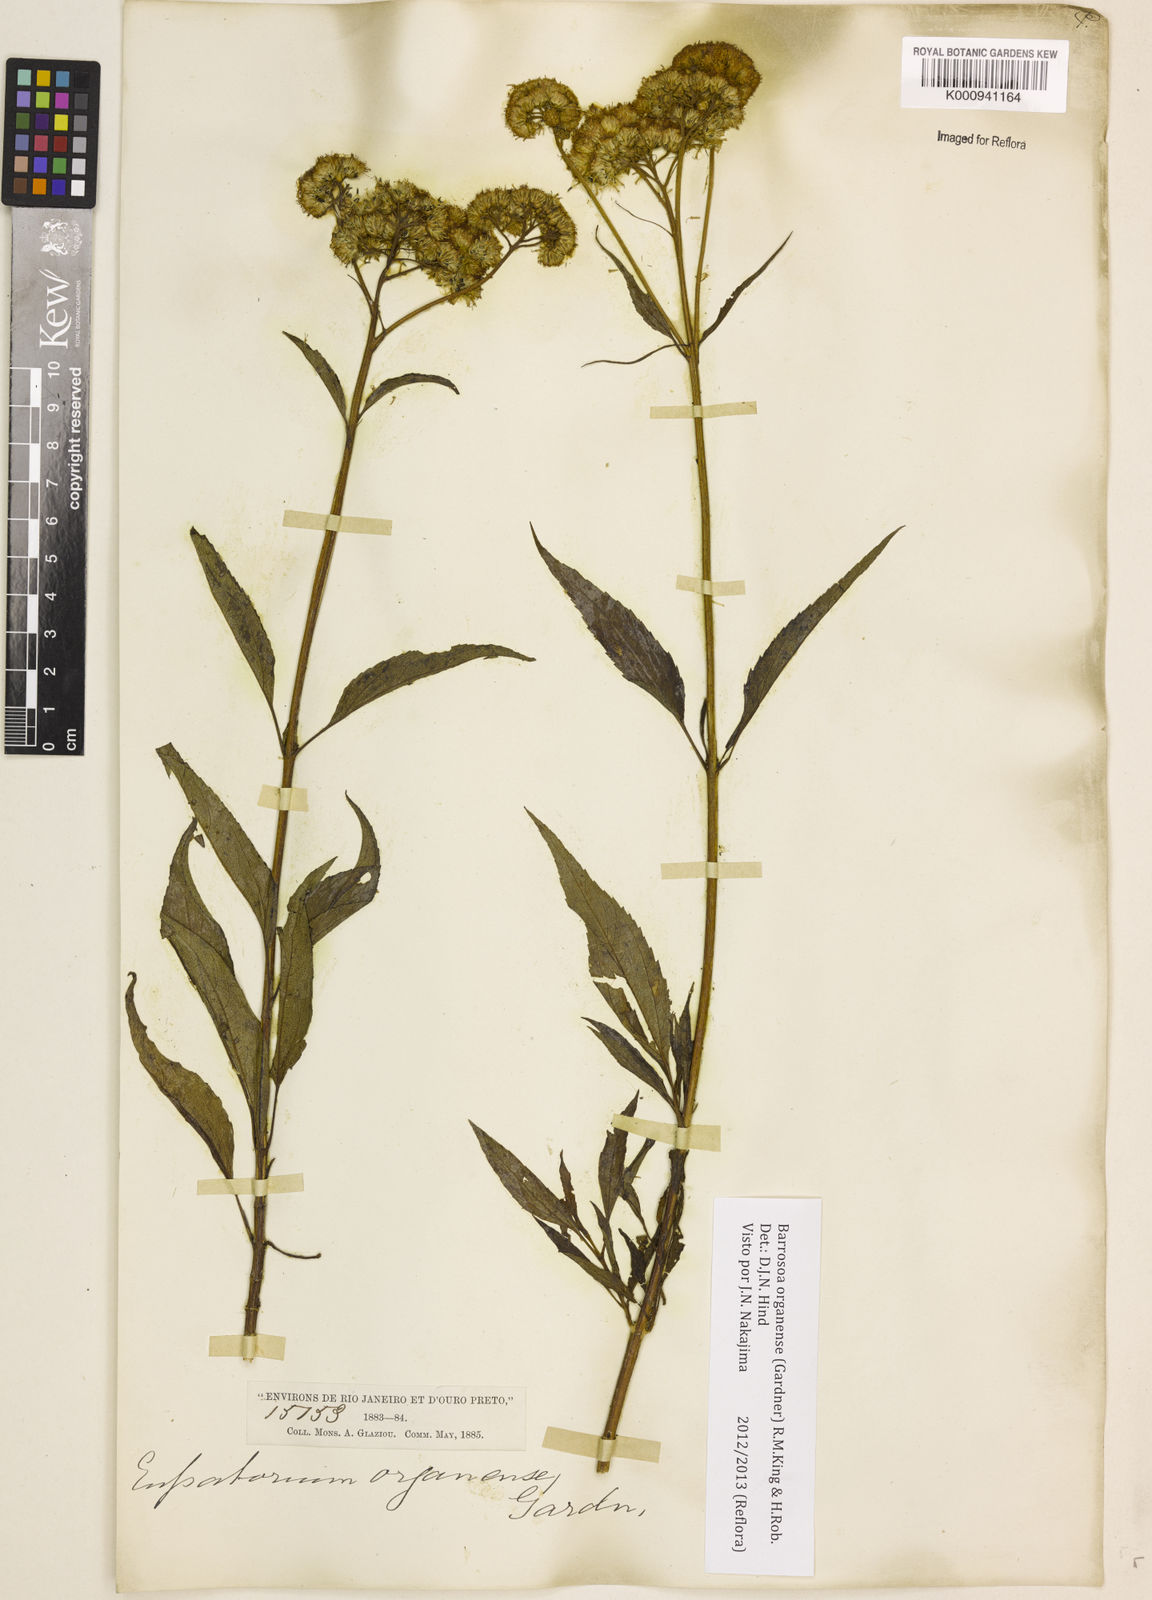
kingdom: Plantae
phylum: Tracheophyta
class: Magnoliopsida
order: Asterales
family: Asteraceae
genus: Barrosoa
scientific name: Barrosoa
